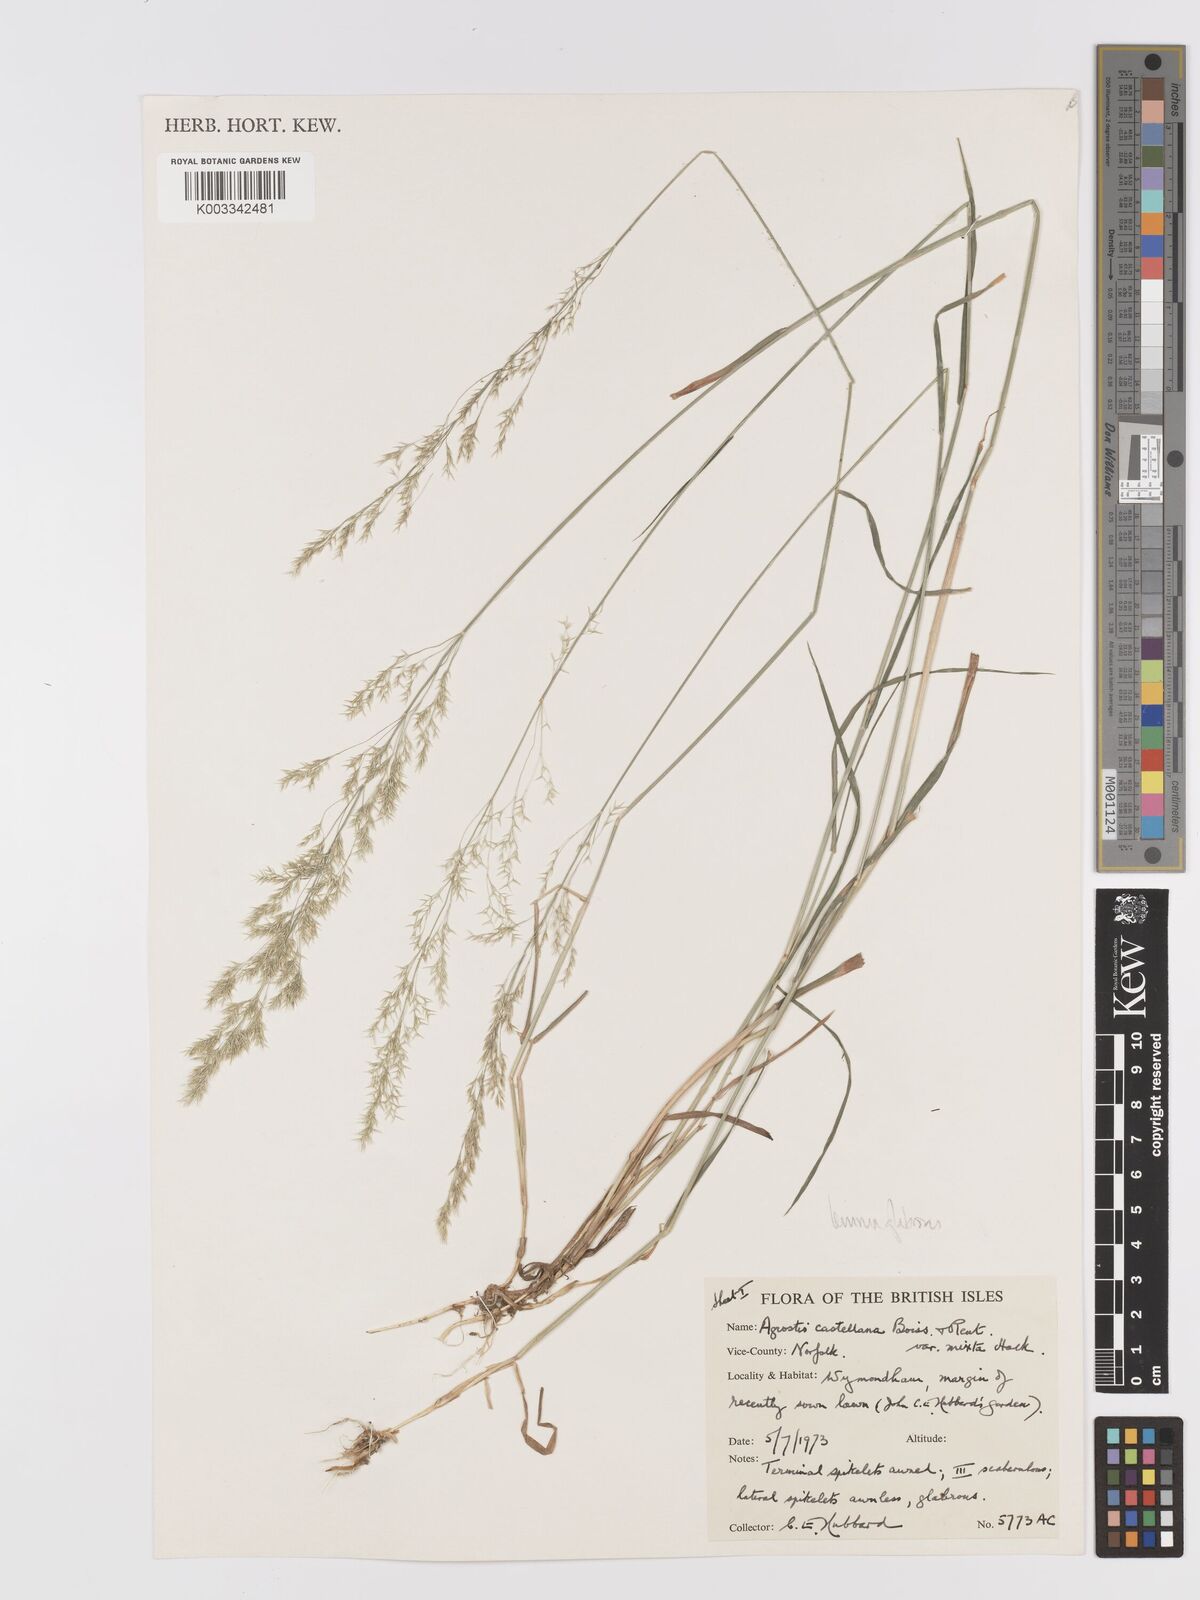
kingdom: Plantae
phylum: Tracheophyta
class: Liliopsida
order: Poales
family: Poaceae
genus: Agrostis
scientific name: Agrostis castellana
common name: Highland bent
